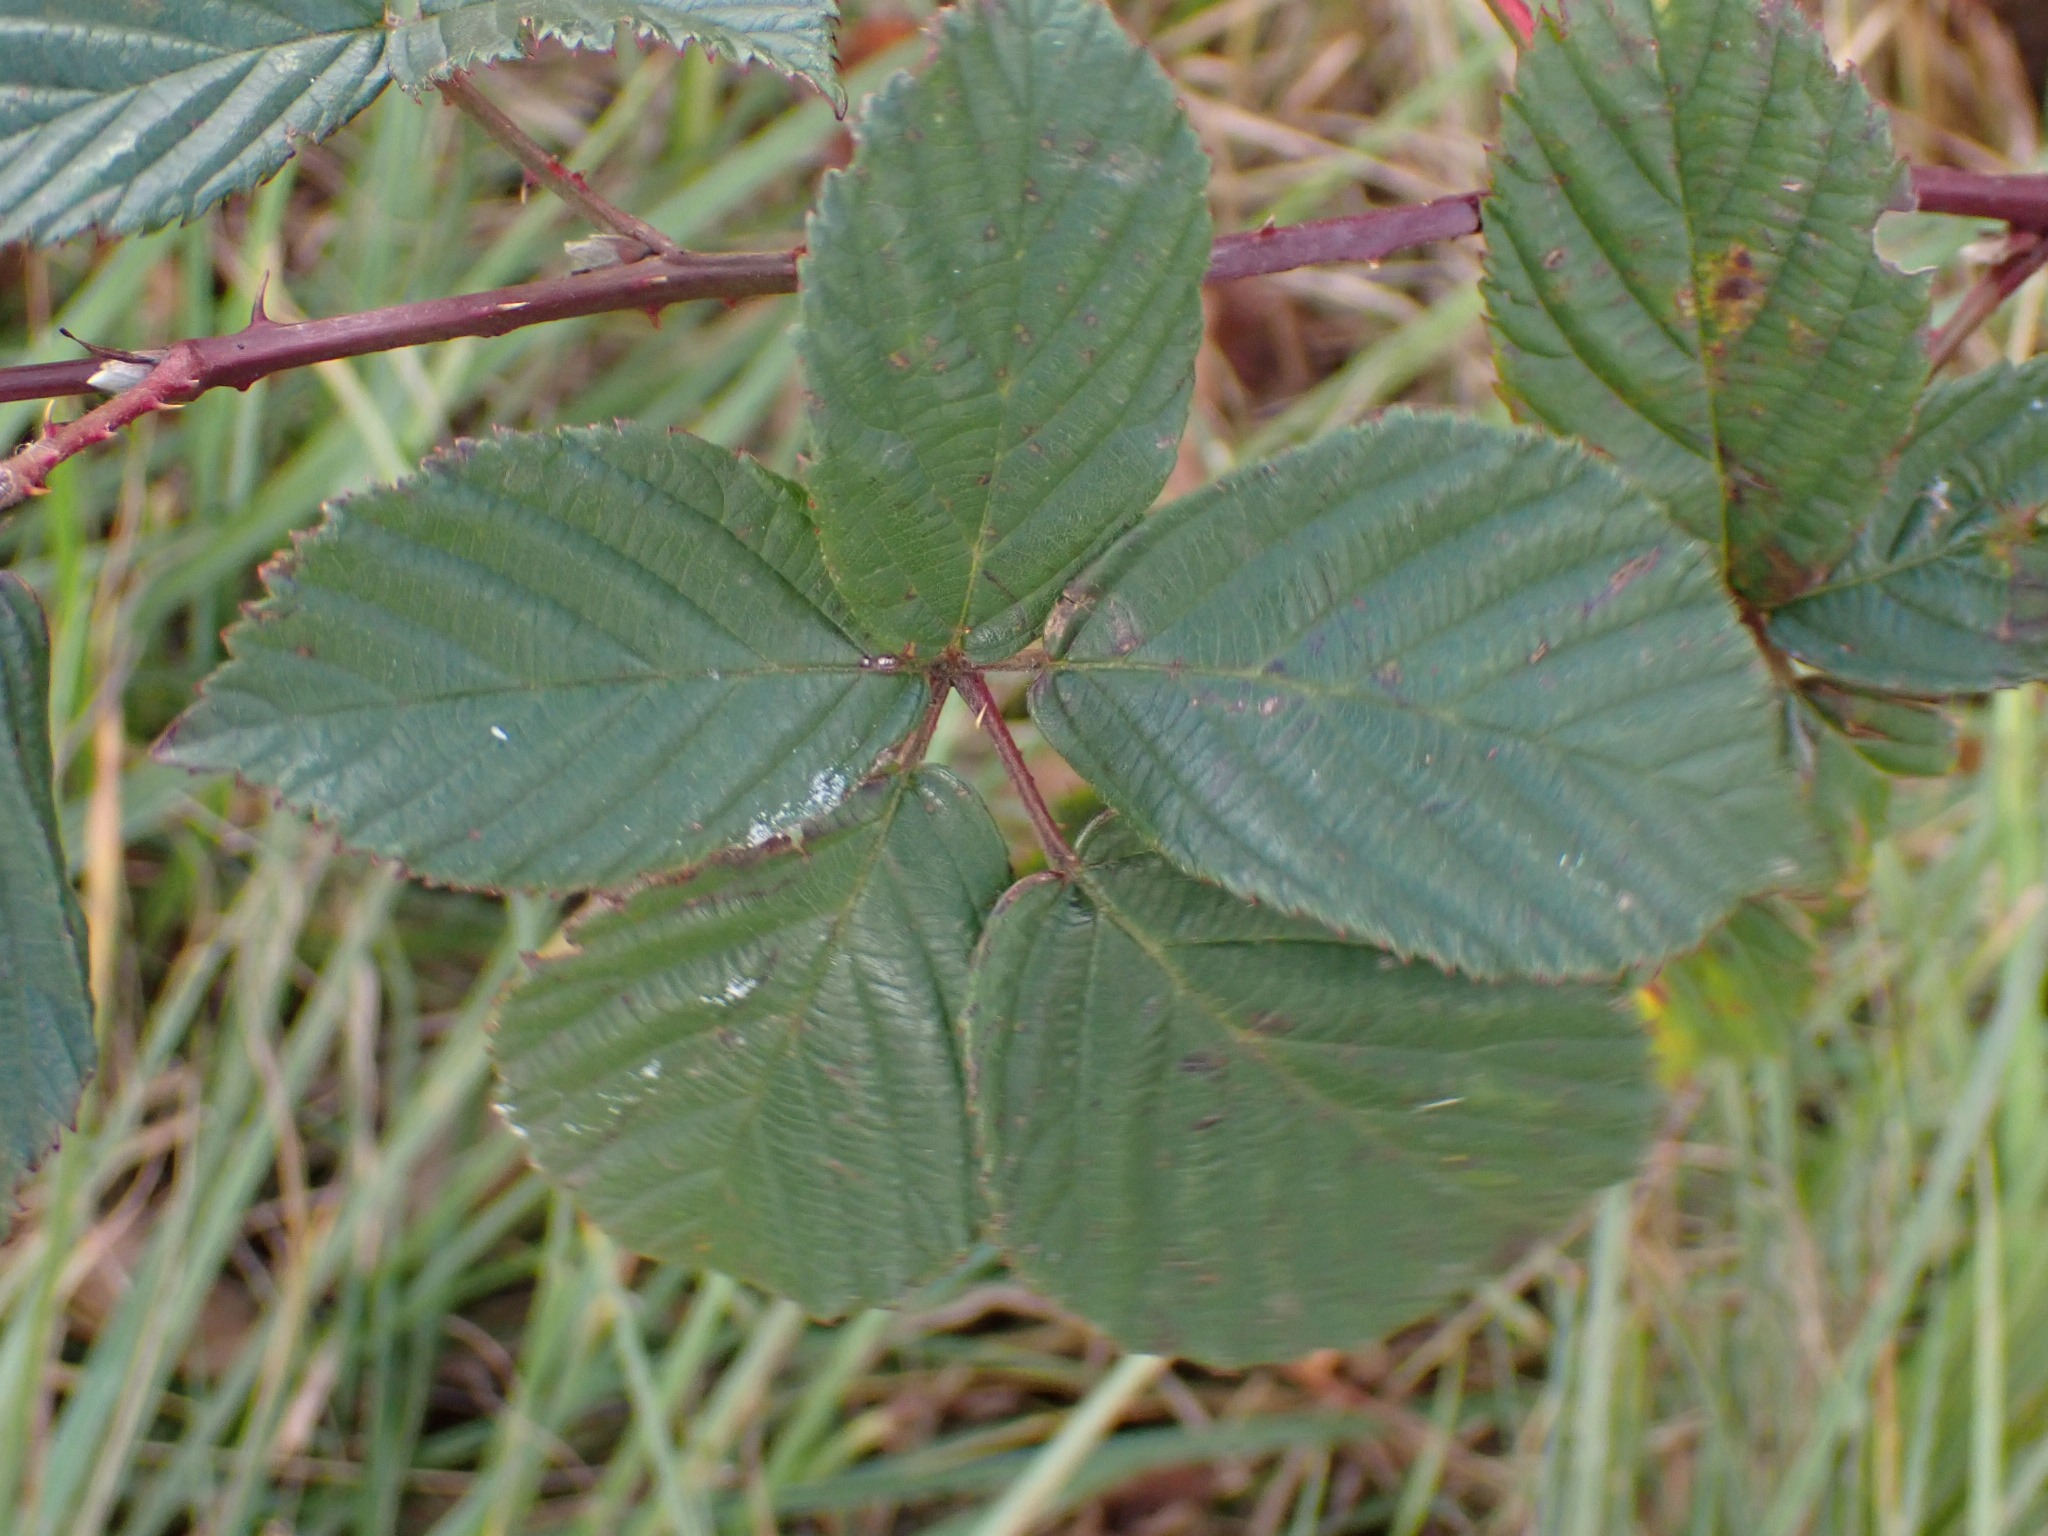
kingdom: Plantae
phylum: Tracheophyta
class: Magnoliopsida
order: Rosales
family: Rosaceae
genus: Rubus
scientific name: Rubus plicatus
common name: Almindelig brombær
